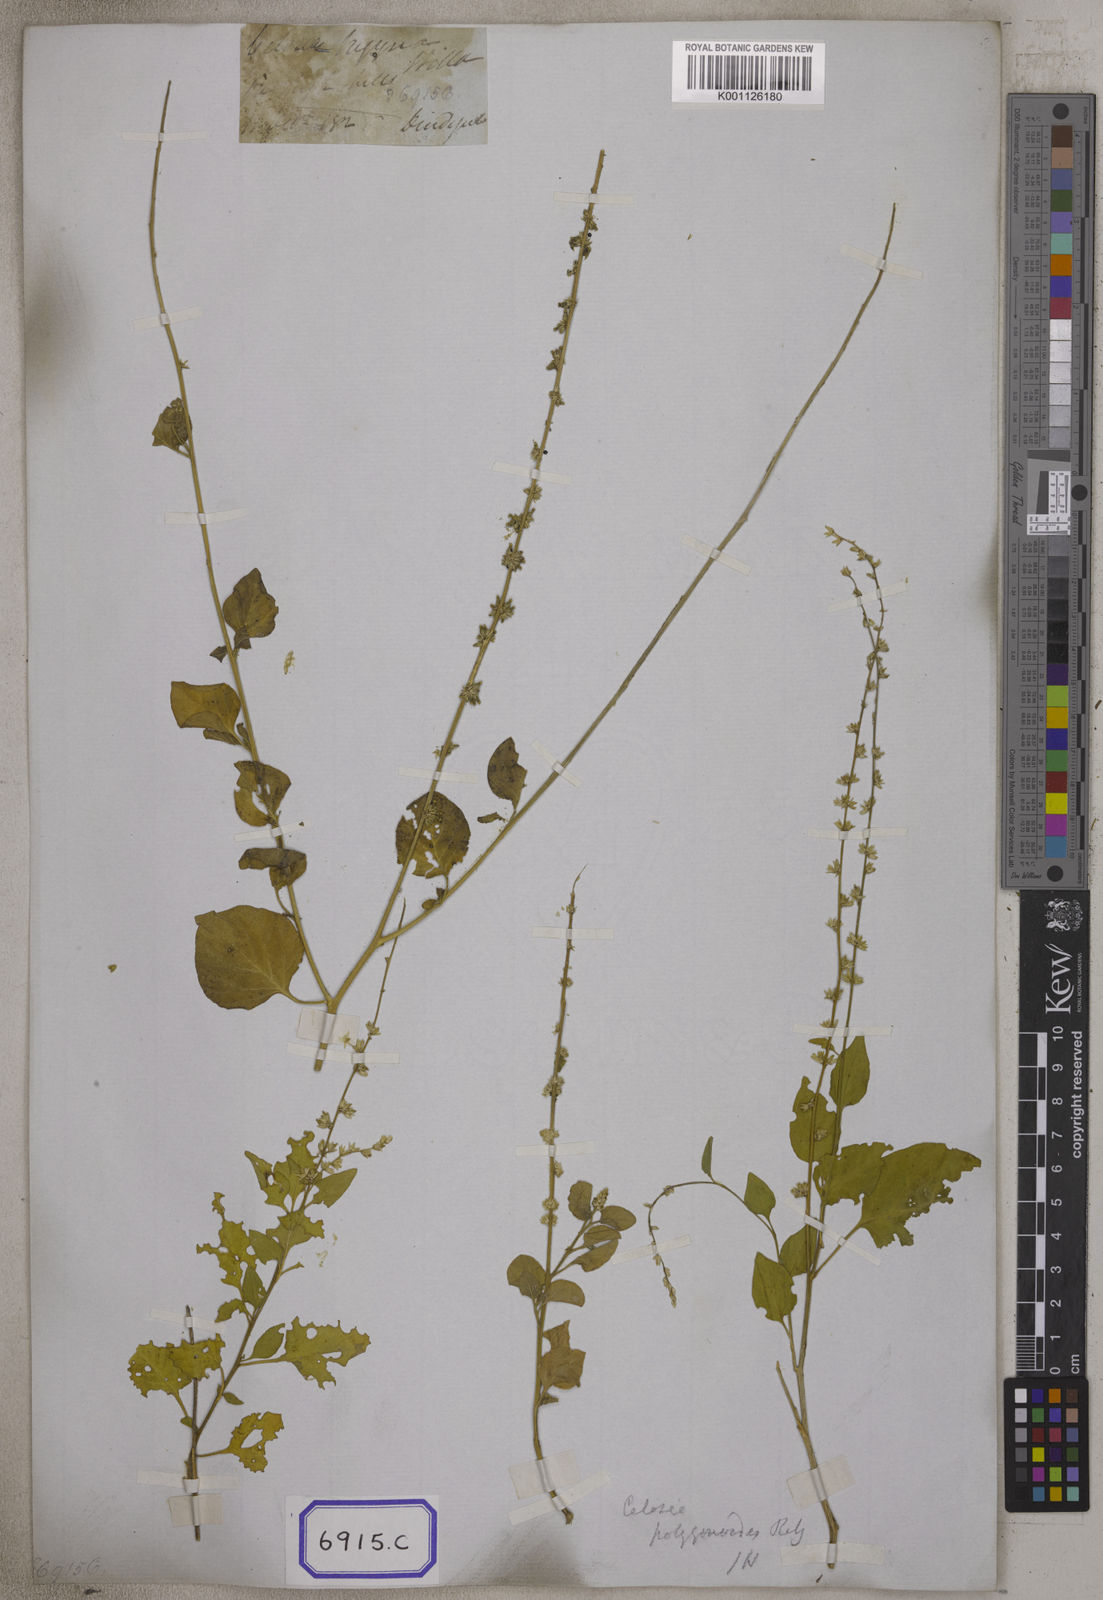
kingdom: Plantae
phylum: Tracheophyta
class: Magnoliopsida
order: Caryophyllales
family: Amaranthaceae
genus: Indobanalia
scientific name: Indobanalia thyrsiflora
